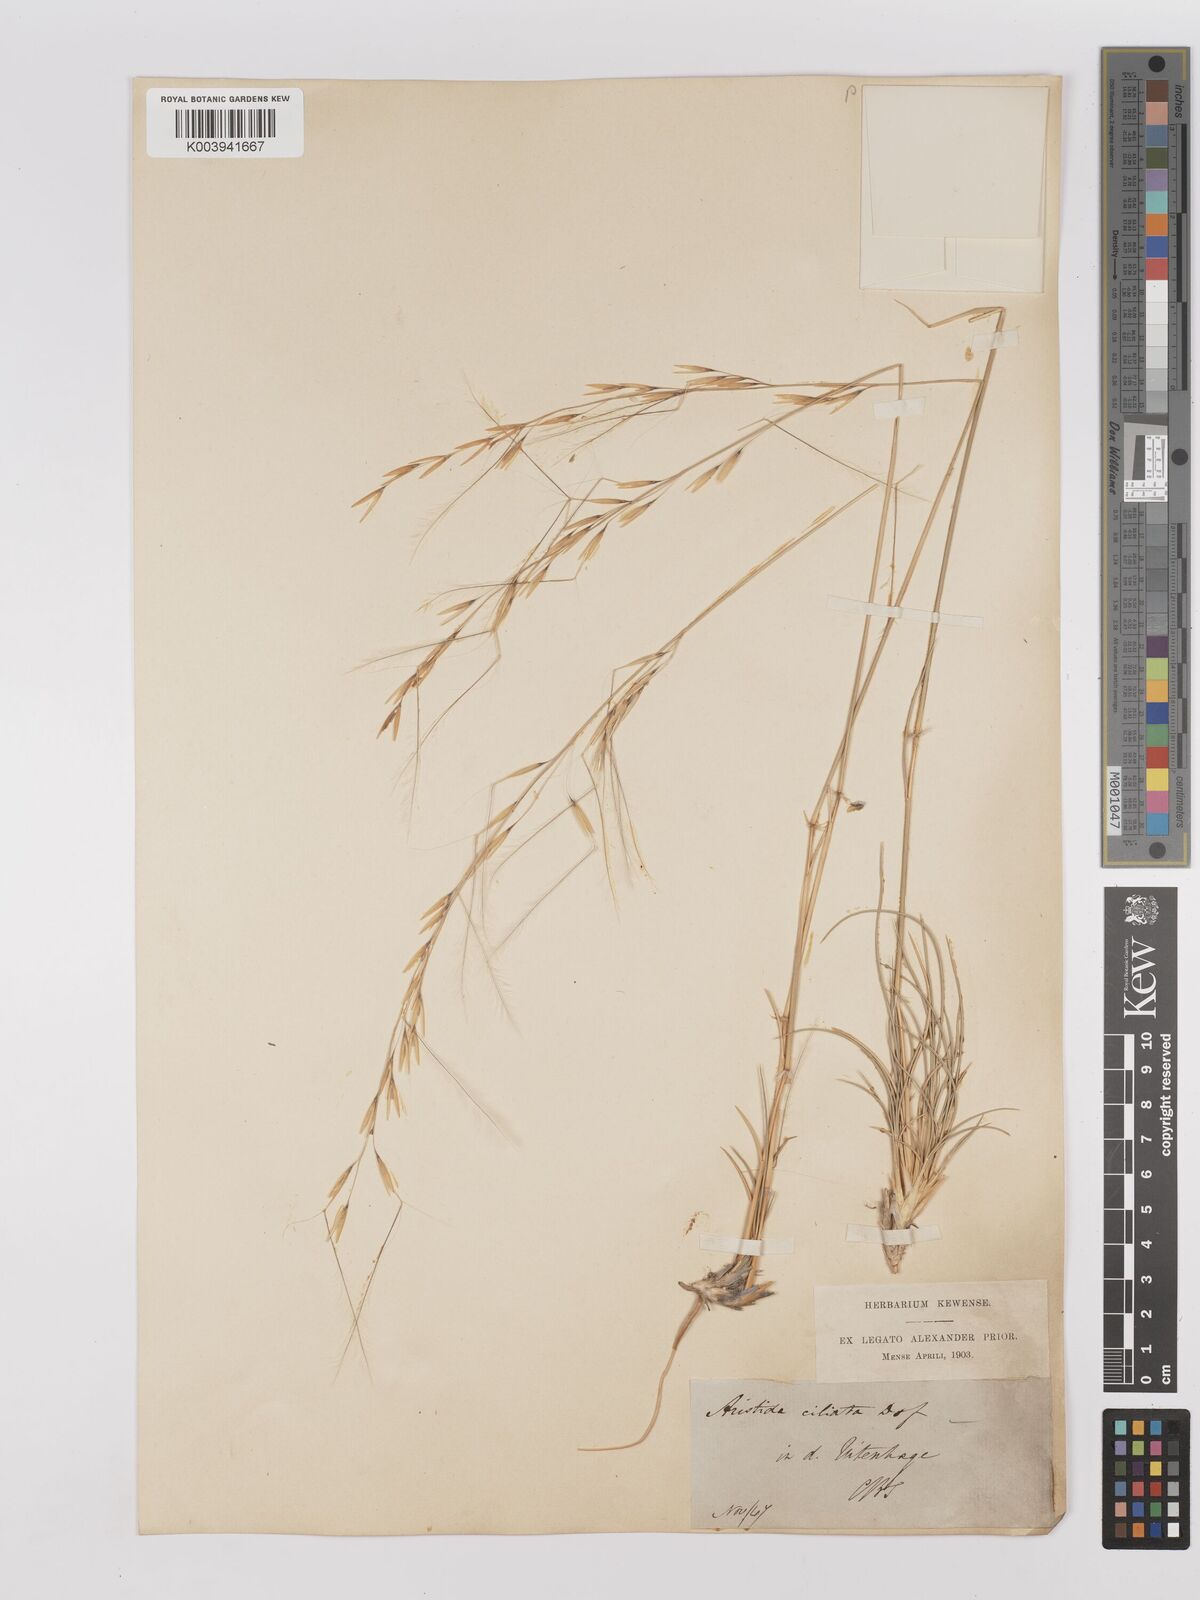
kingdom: Plantae
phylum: Tracheophyta
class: Liliopsida
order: Poales
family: Poaceae
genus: Stipagrostis
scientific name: Stipagrostis ciliata
